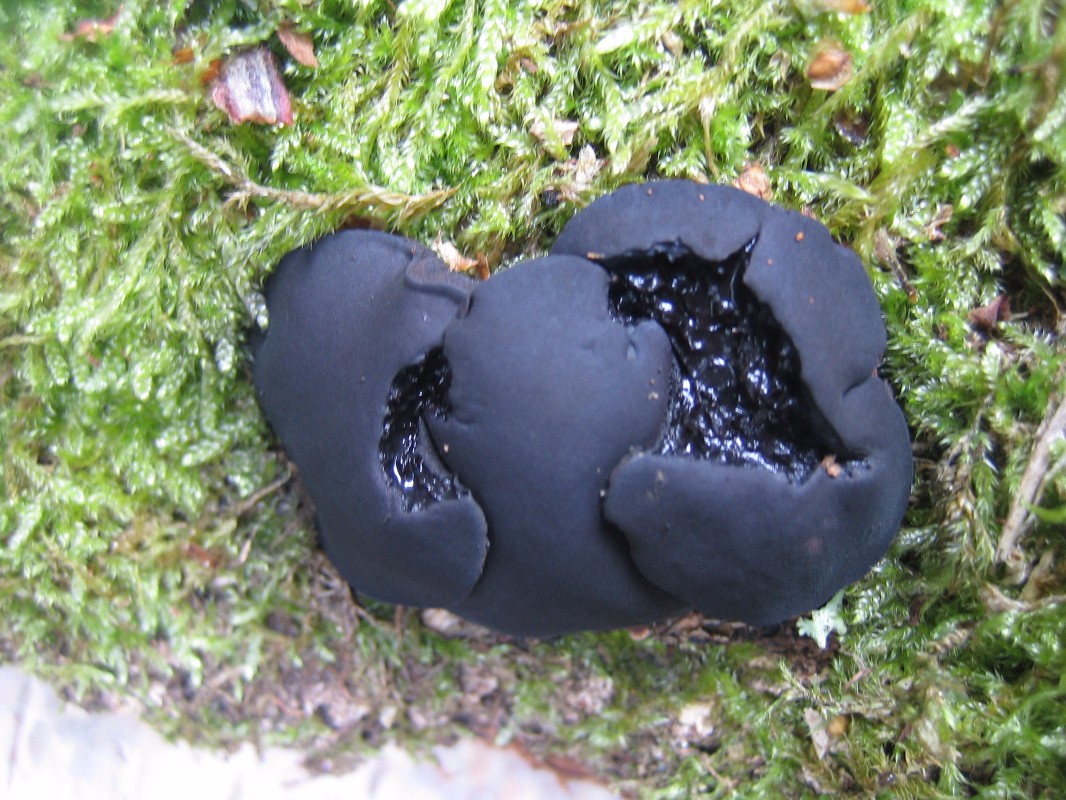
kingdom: Fungi
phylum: Ascomycota
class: Leotiomycetes
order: Phacidiales
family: Phacidiaceae
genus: Bulgaria
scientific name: Bulgaria inquinans
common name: afsmittende topsvamp
